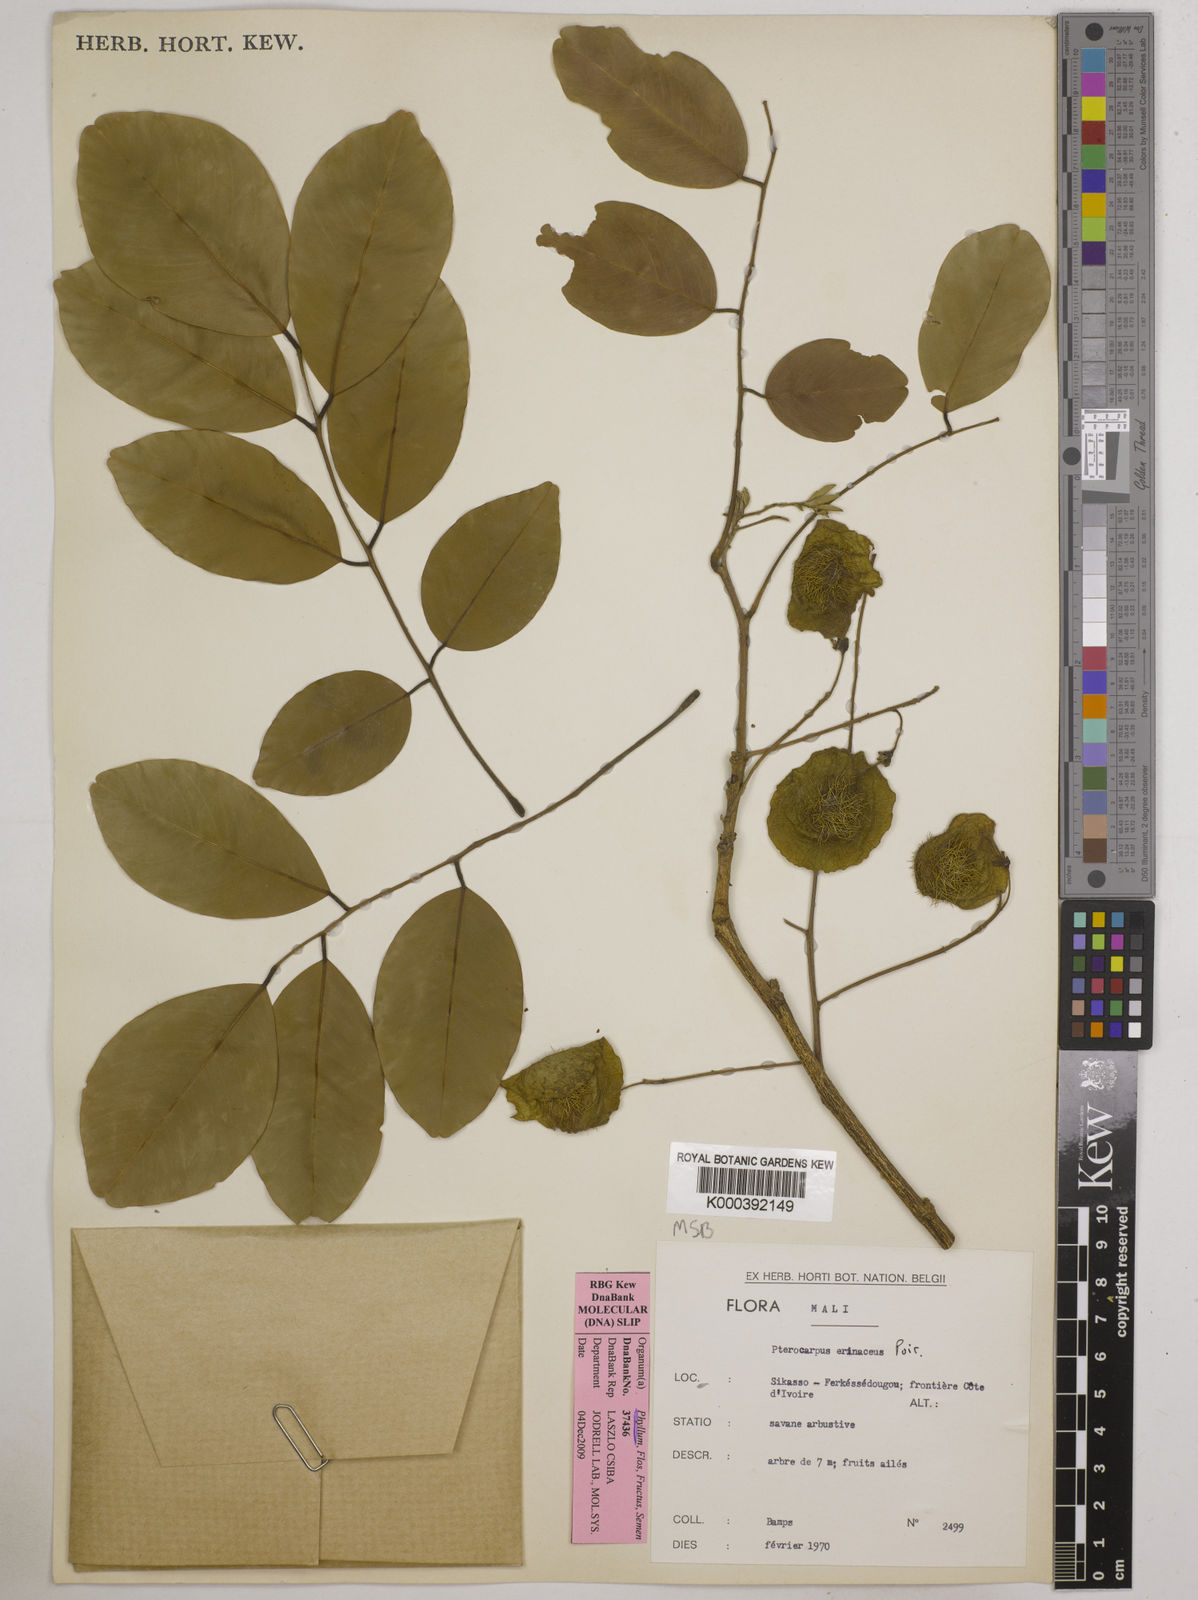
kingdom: Plantae
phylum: Tracheophyta
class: Magnoliopsida
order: Fabales
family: Fabaceae
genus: Pterocarpus
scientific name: Pterocarpus erinaceus
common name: African rosewood
